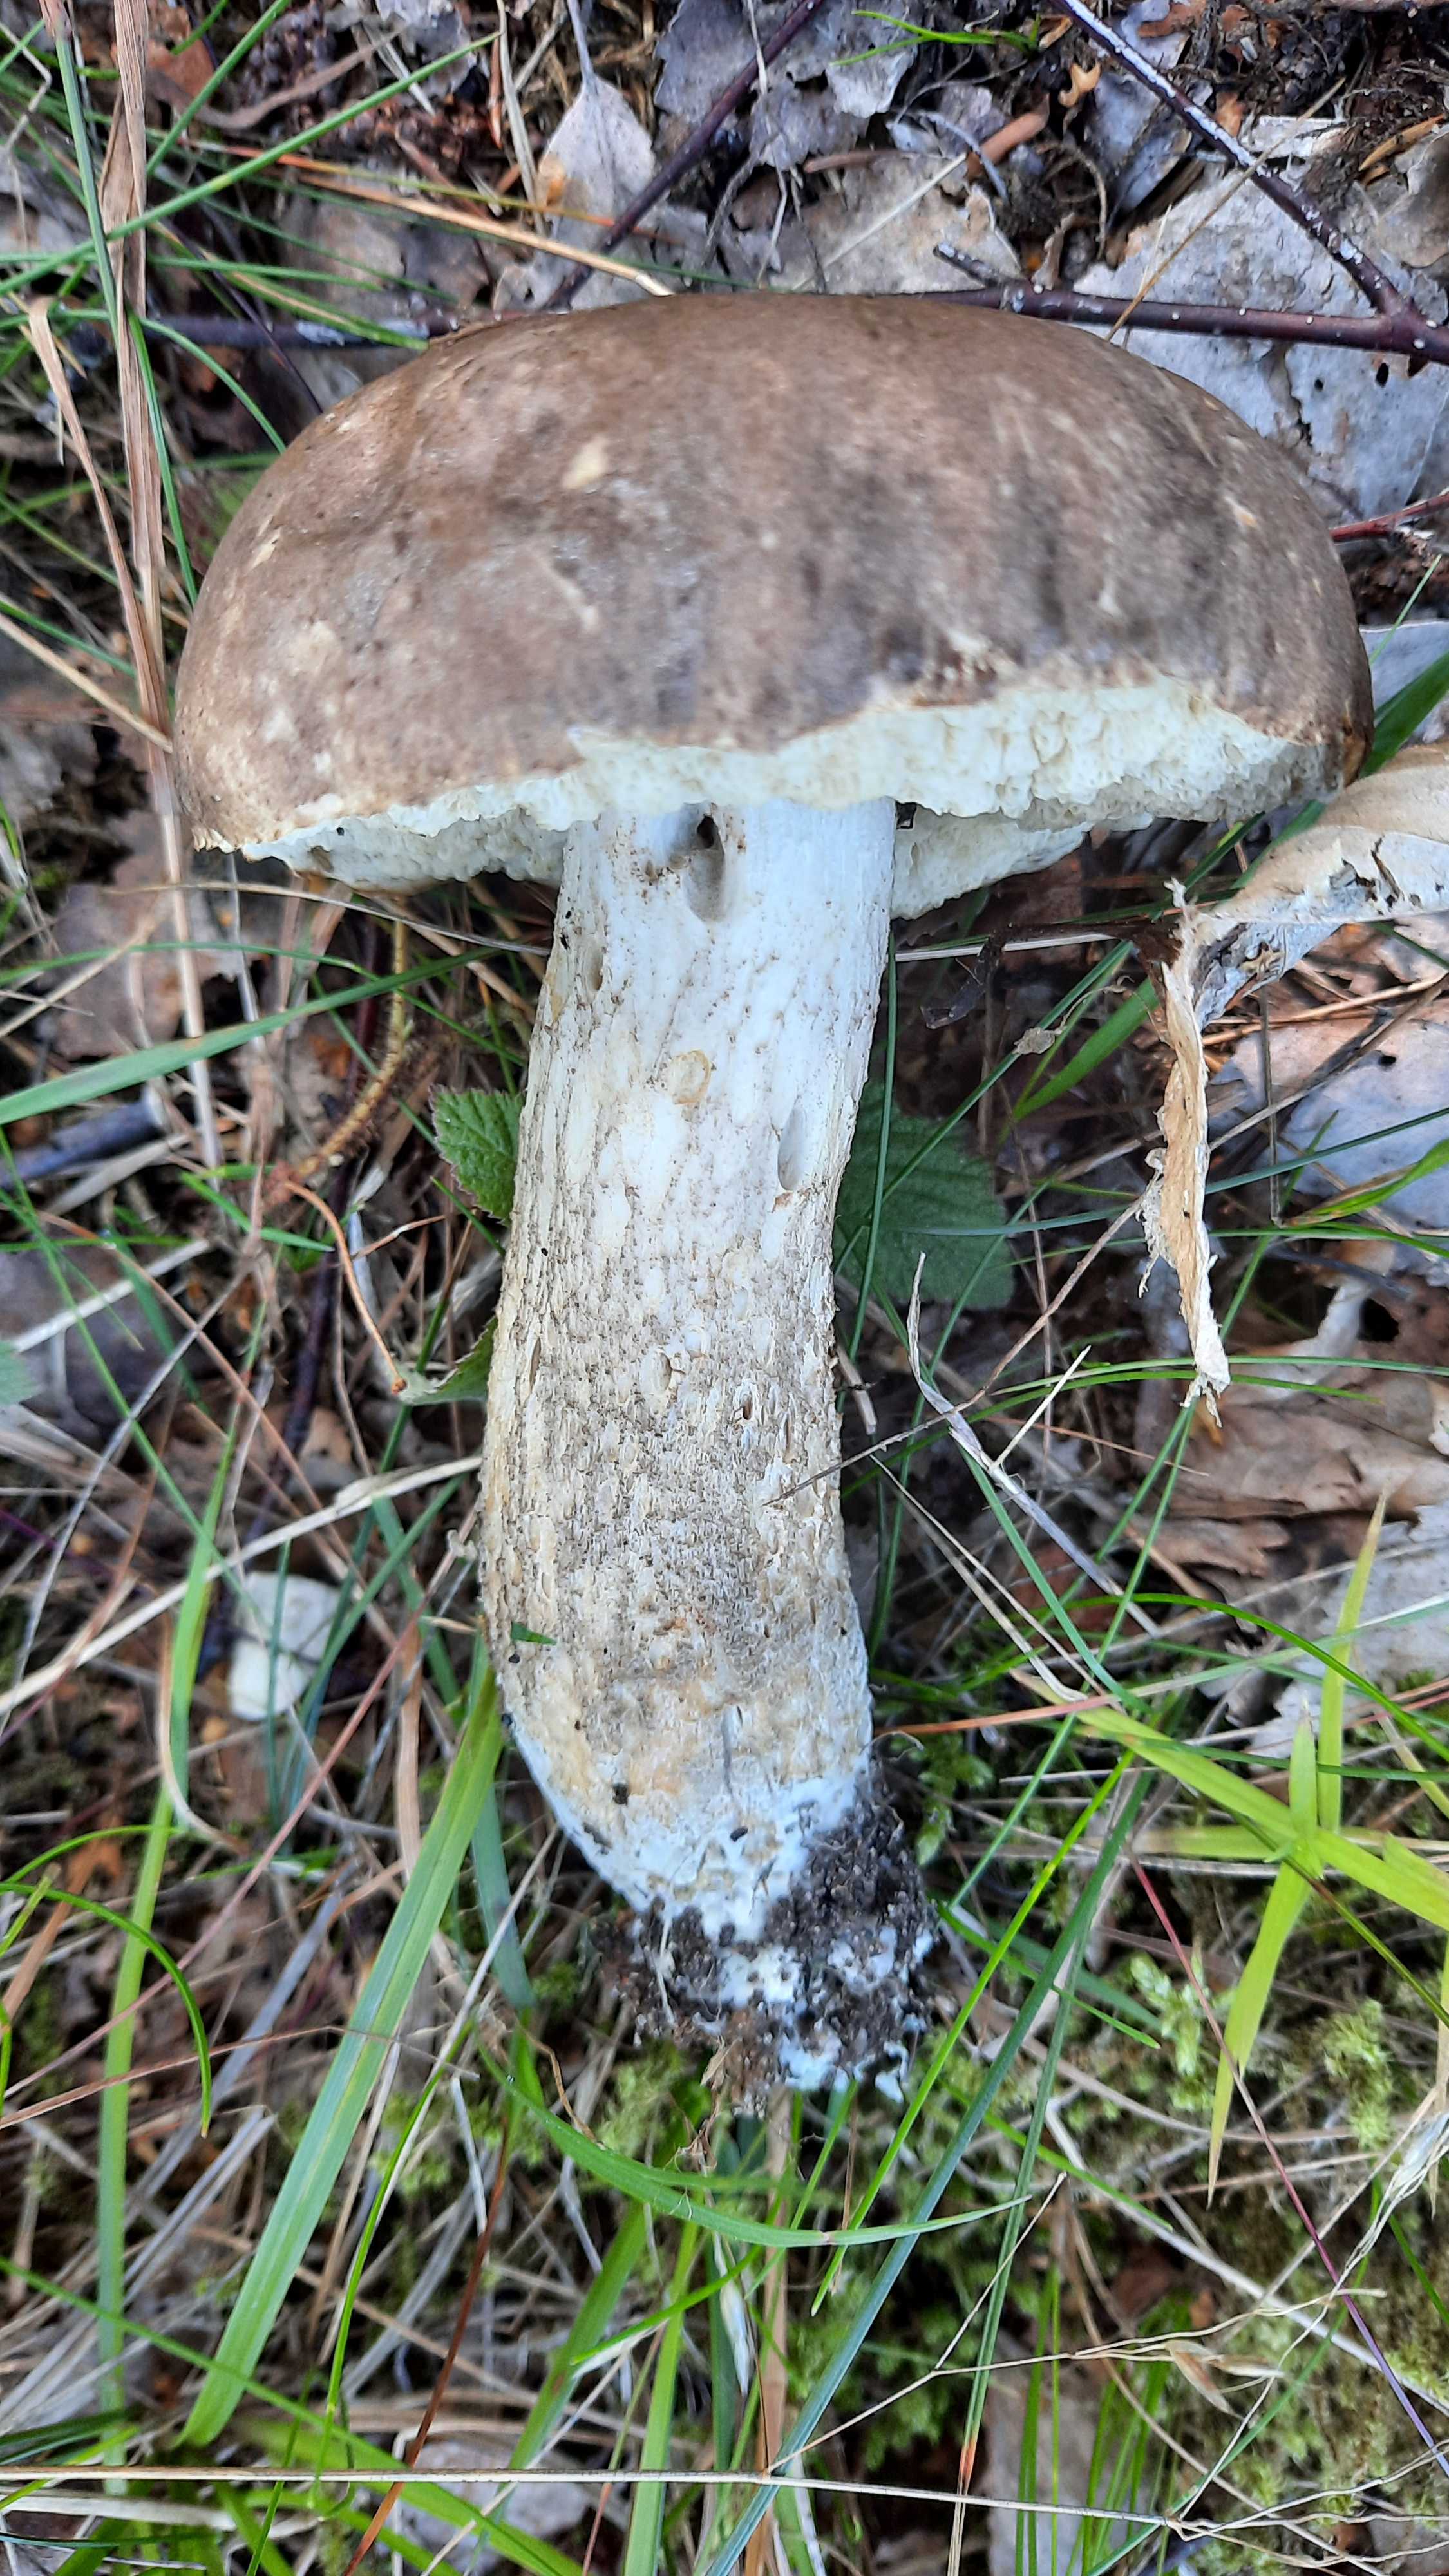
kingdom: Fungi
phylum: Basidiomycota
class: Agaricomycetes
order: Boletales
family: Boletaceae
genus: Leccinum
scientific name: Leccinum
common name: skælrørhat
